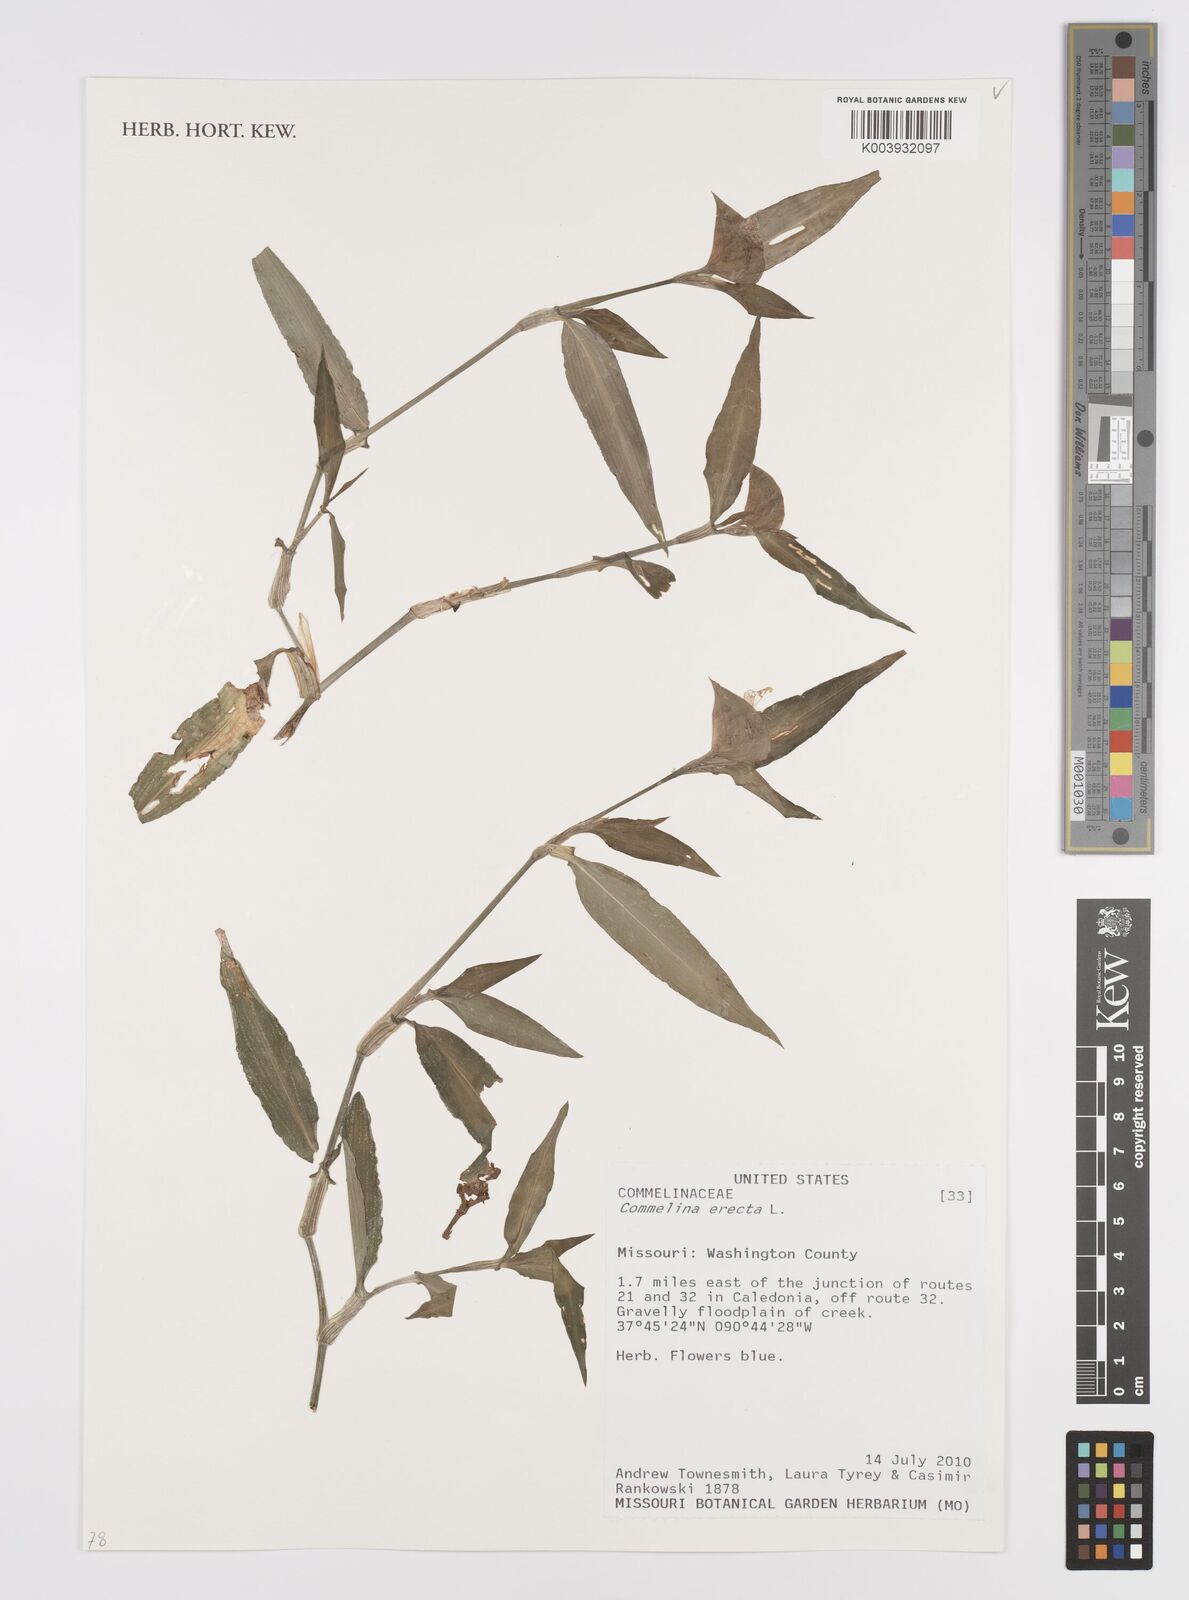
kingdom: Plantae
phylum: Tracheophyta
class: Liliopsida
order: Commelinales
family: Commelinaceae
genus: Commelina
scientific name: Commelina erecta
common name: Blousel blommetjie
